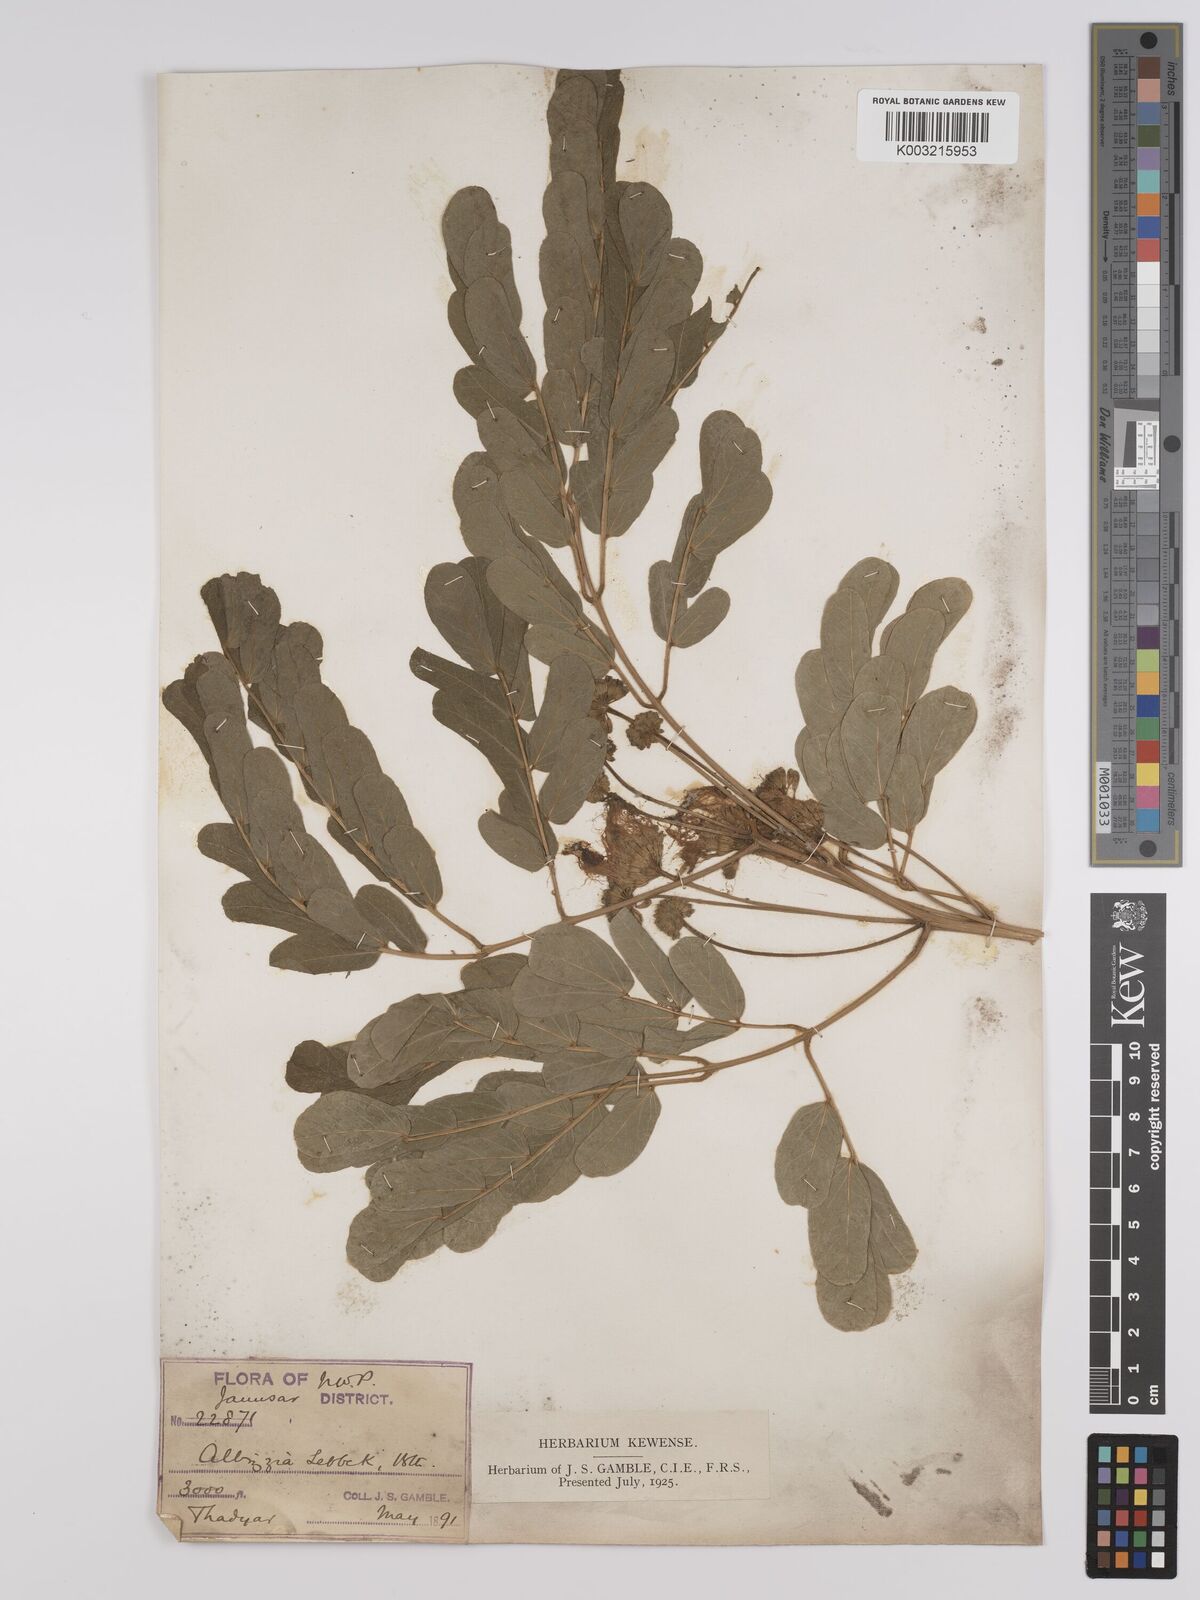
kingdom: Plantae
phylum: Tracheophyta
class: Magnoliopsida
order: Fabales
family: Fabaceae
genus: Albizia
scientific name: Albizia lebbeck
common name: Woman's tongue
